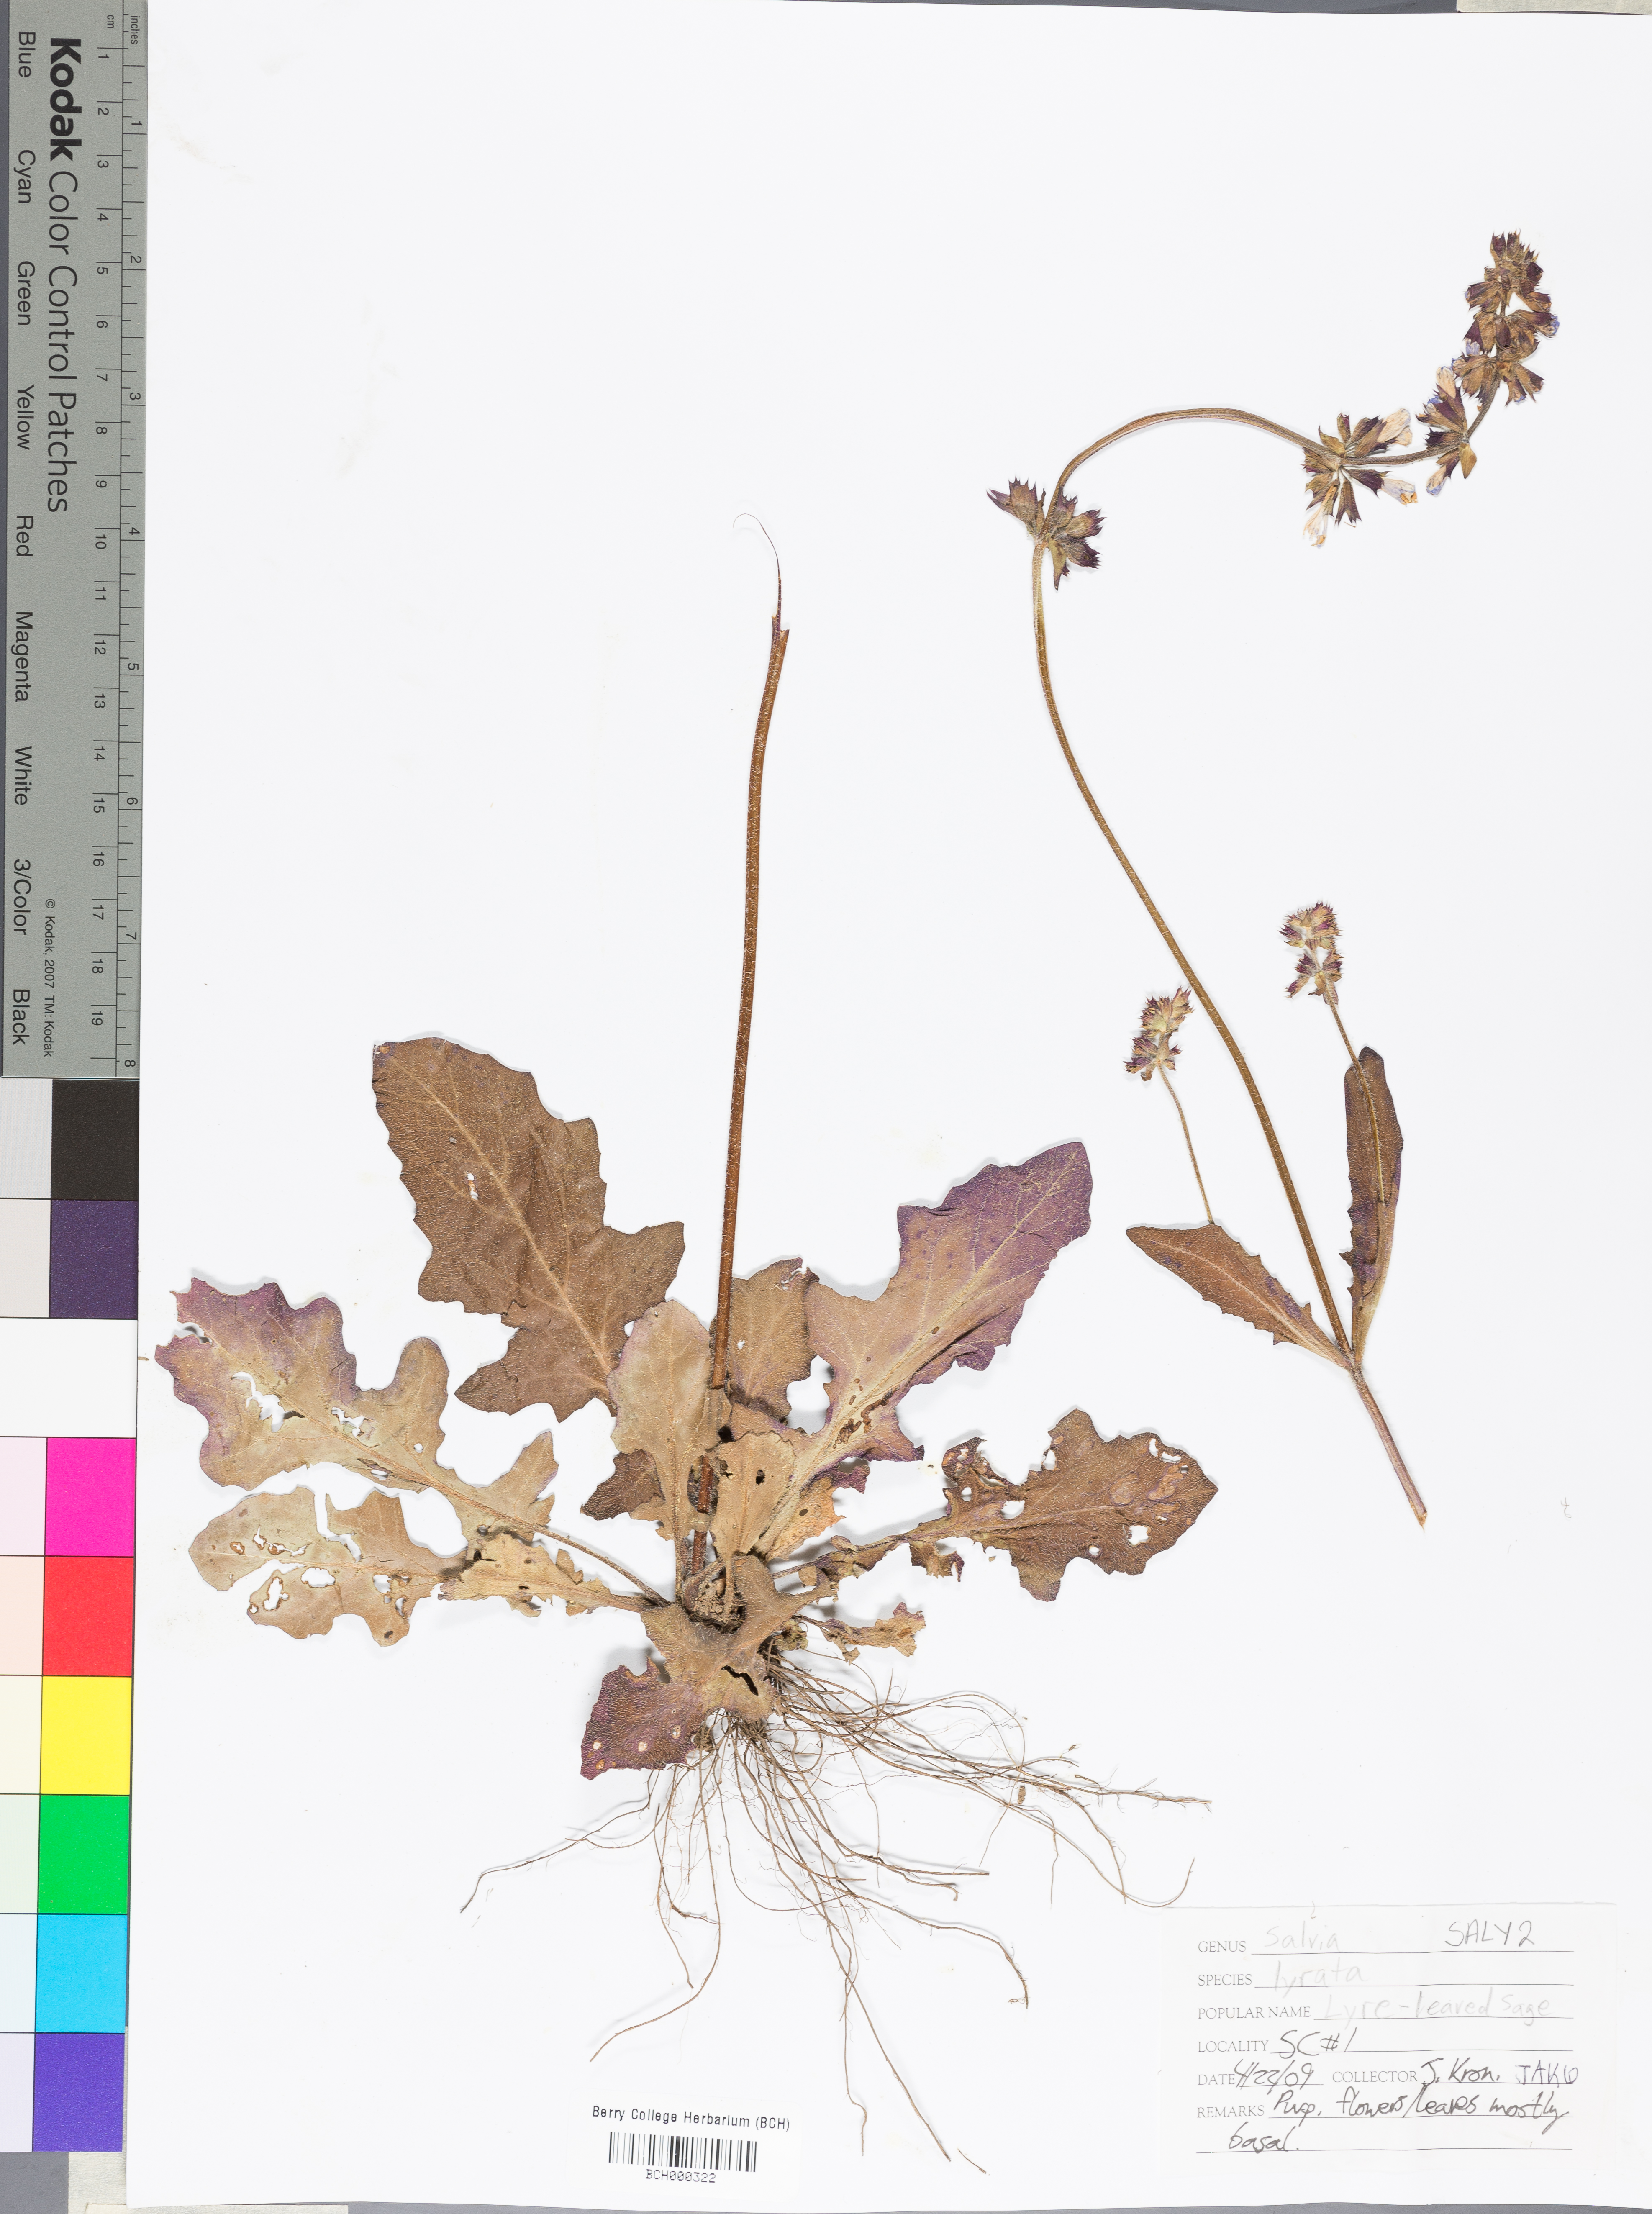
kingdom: Plantae
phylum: Tracheophyta
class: Magnoliopsida
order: Lamiales
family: Lamiaceae
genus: Salvia
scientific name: Salvia lyrata
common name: Cancerweed
